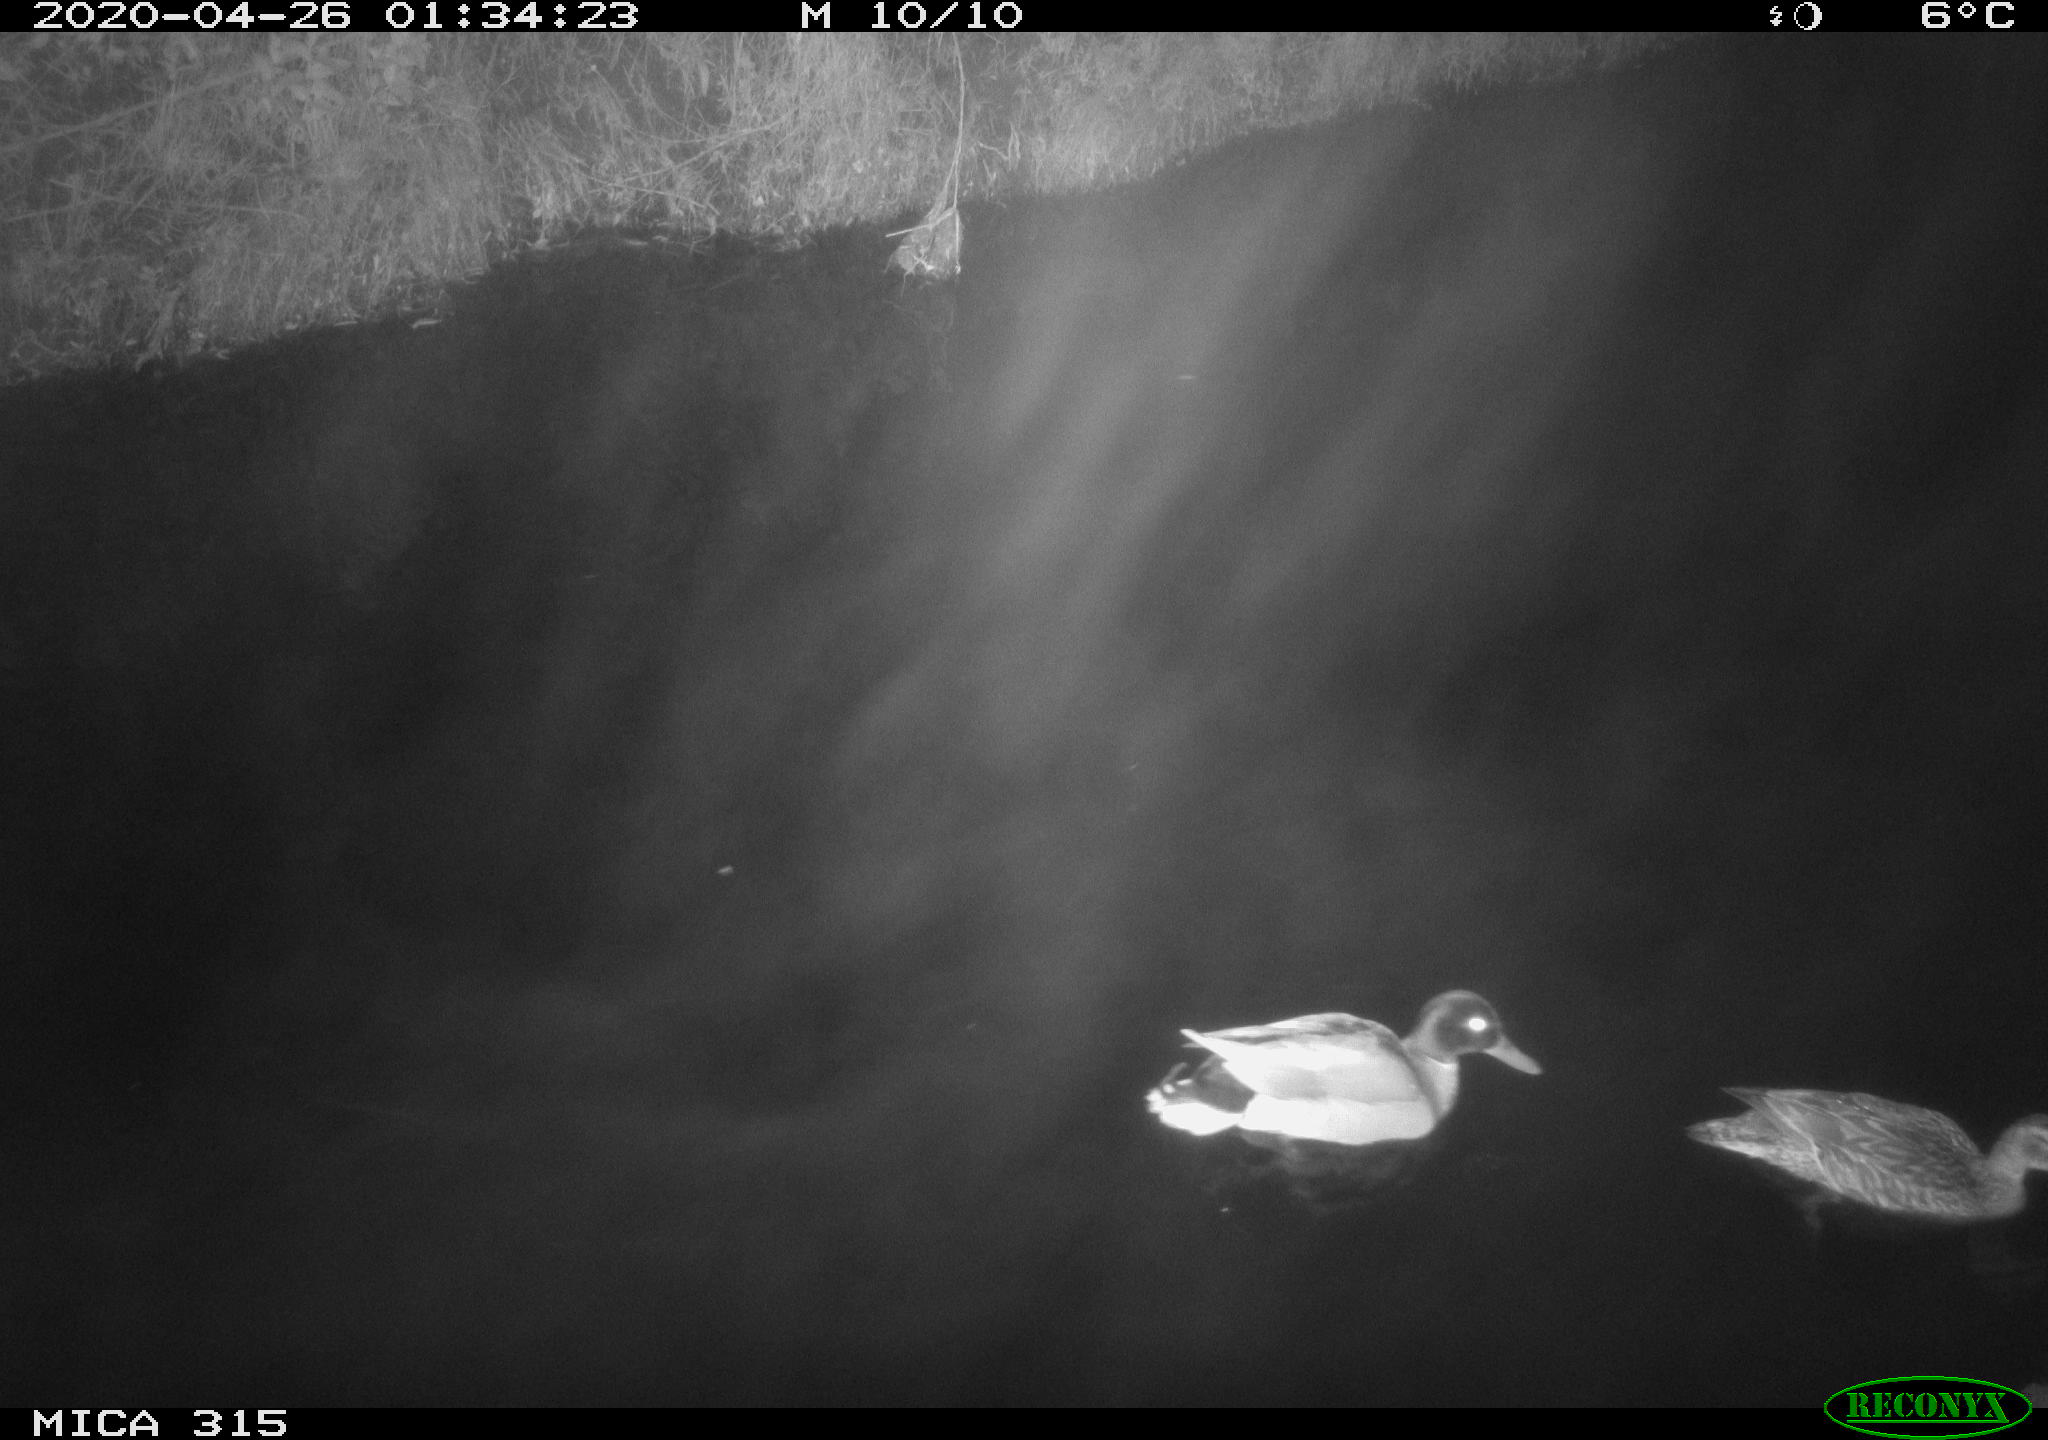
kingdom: Animalia
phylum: Chordata
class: Aves
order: Anseriformes
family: Anatidae
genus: Anas
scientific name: Anas platyrhynchos
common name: Mallard
